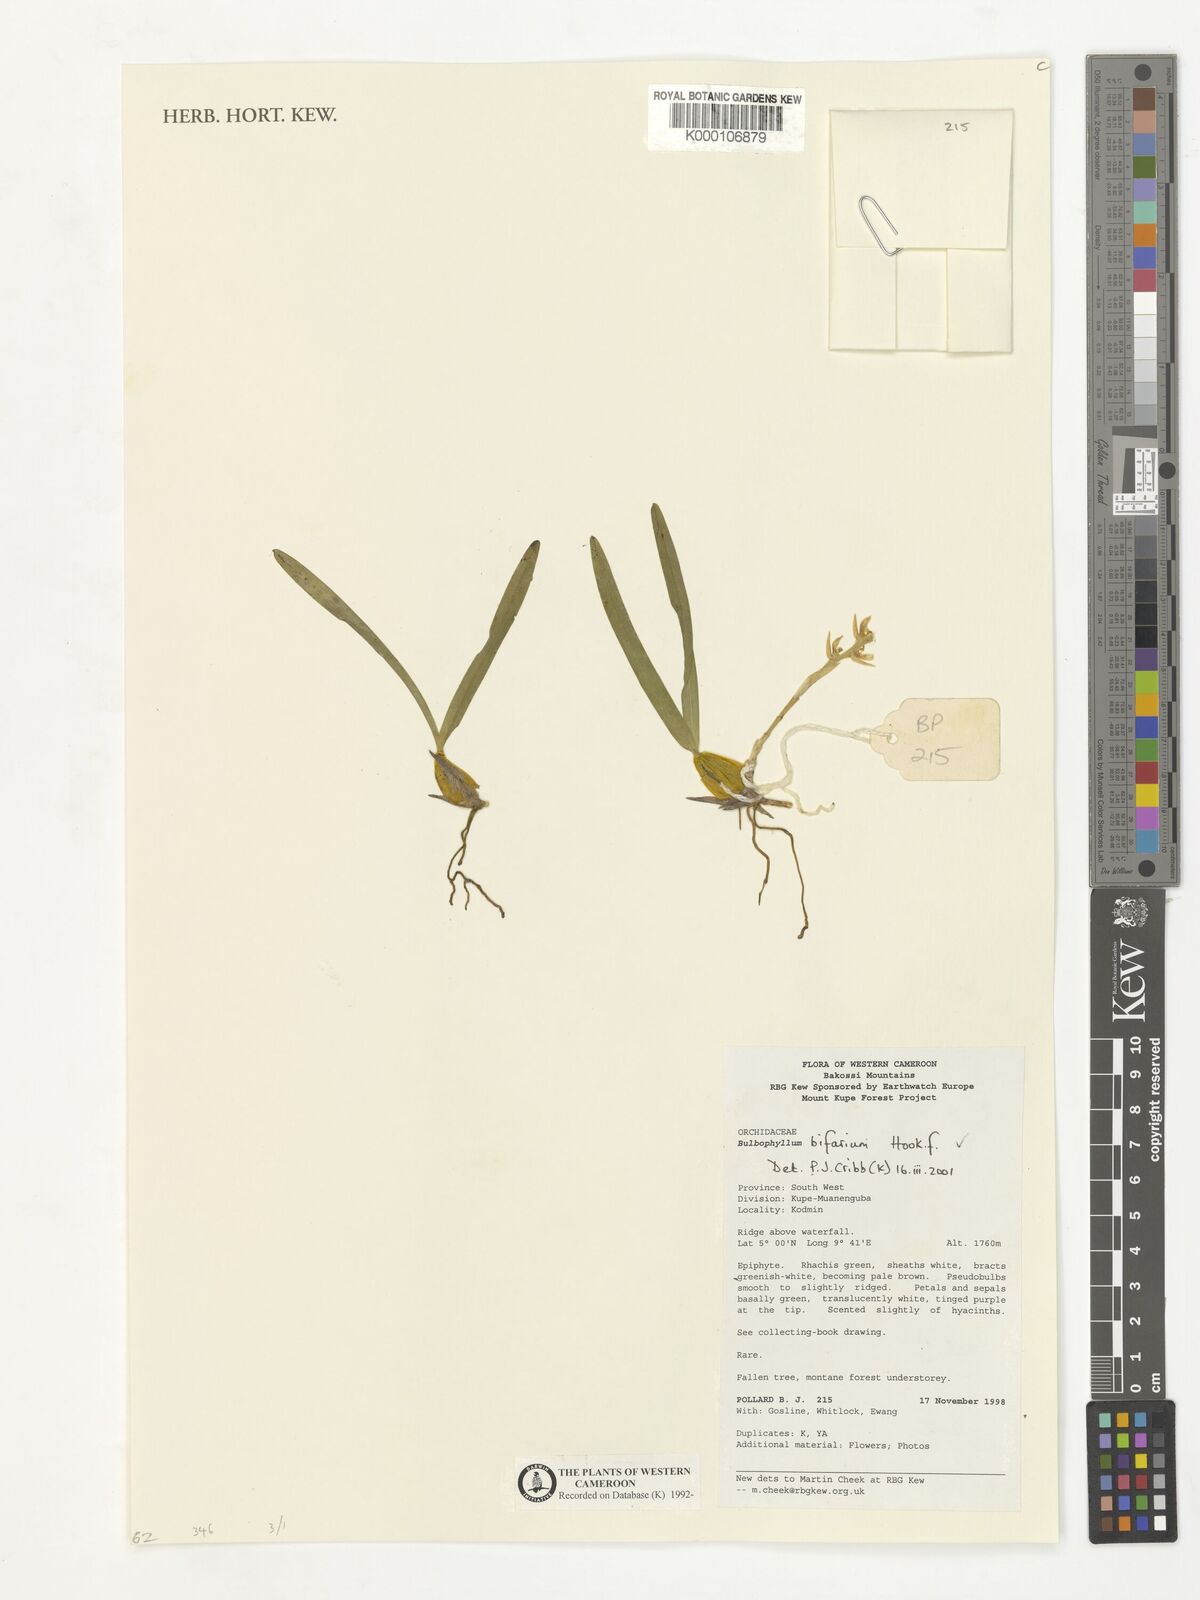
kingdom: Plantae
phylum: Tracheophyta
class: Liliopsida
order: Asparagales
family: Orchidaceae
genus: Bulbophyllum
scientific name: Bulbophyllum bifarium
